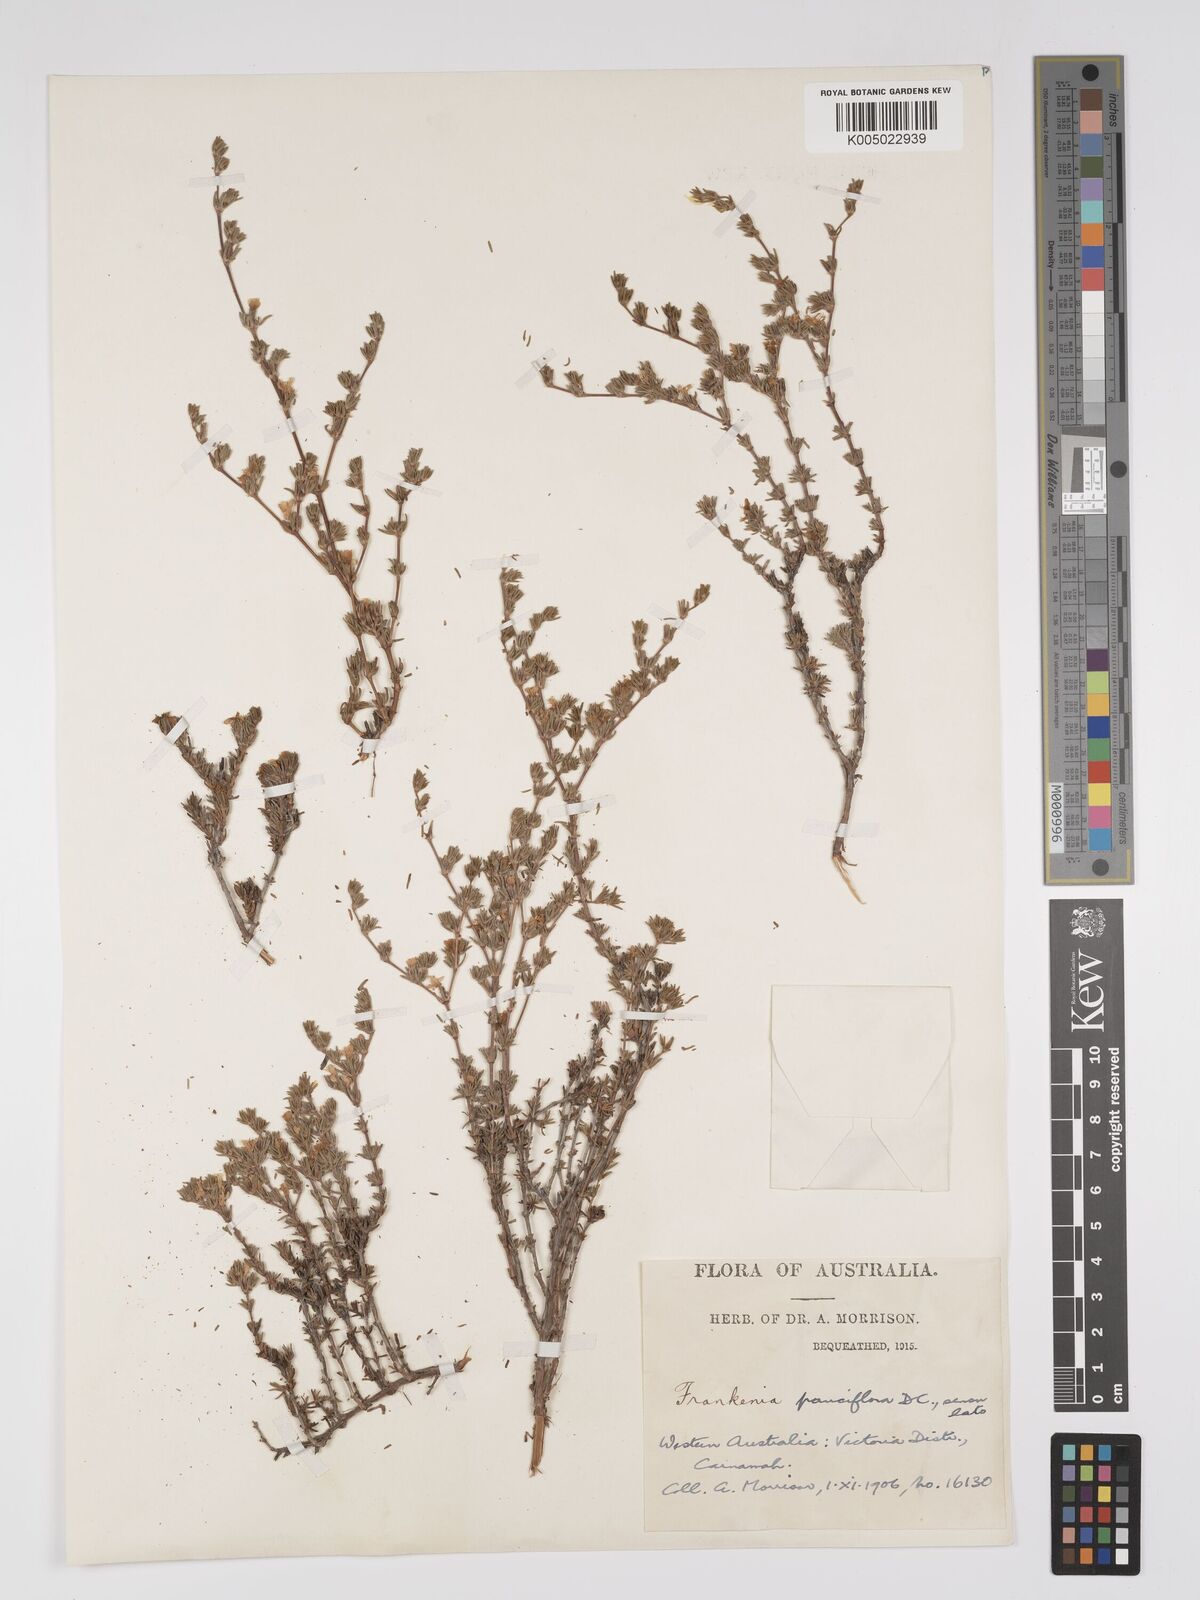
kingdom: Plantae
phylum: Tracheophyta
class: Magnoliopsida
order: Caryophyllales
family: Frankeniaceae
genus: Frankenia
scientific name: Frankenia pauciflora
